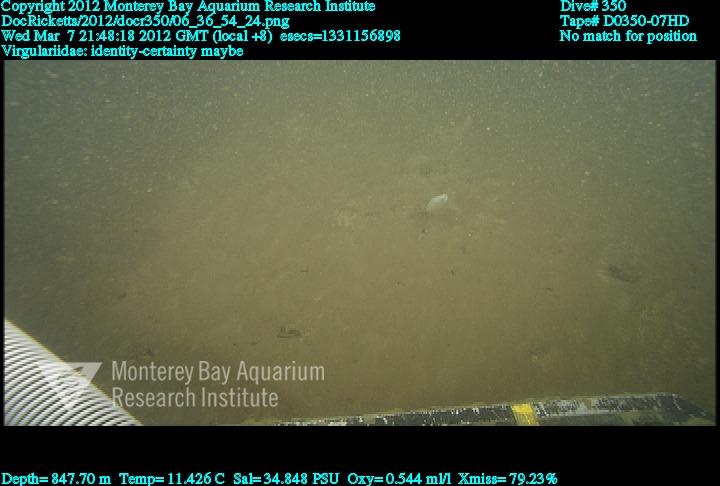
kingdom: Animalia
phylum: Cnidaria
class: Anthozoa
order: Scleralcyonacea
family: Virgulariidae
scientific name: Virgulariidae
